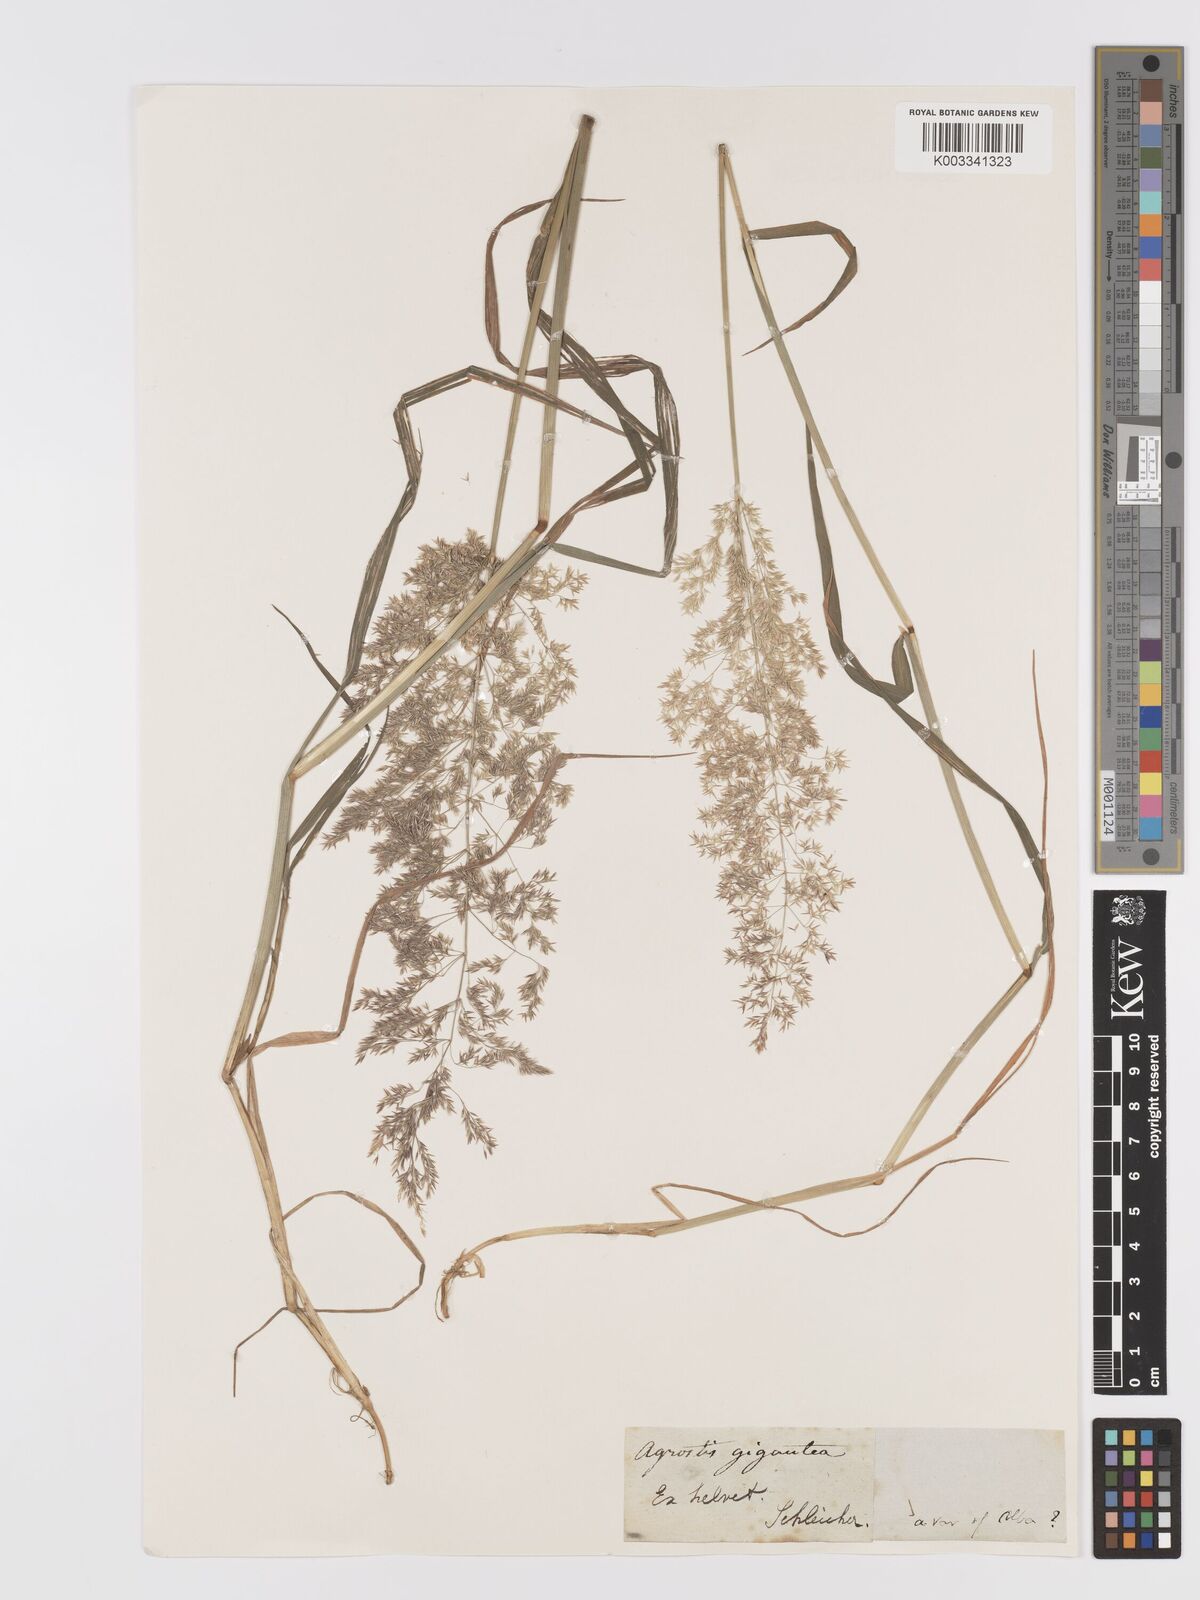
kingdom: Plantae
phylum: Tracheophyta
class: Liliopsida
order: Poales
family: Poaceae
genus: Agrostis
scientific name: Agrostis gigantea
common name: Black bent
